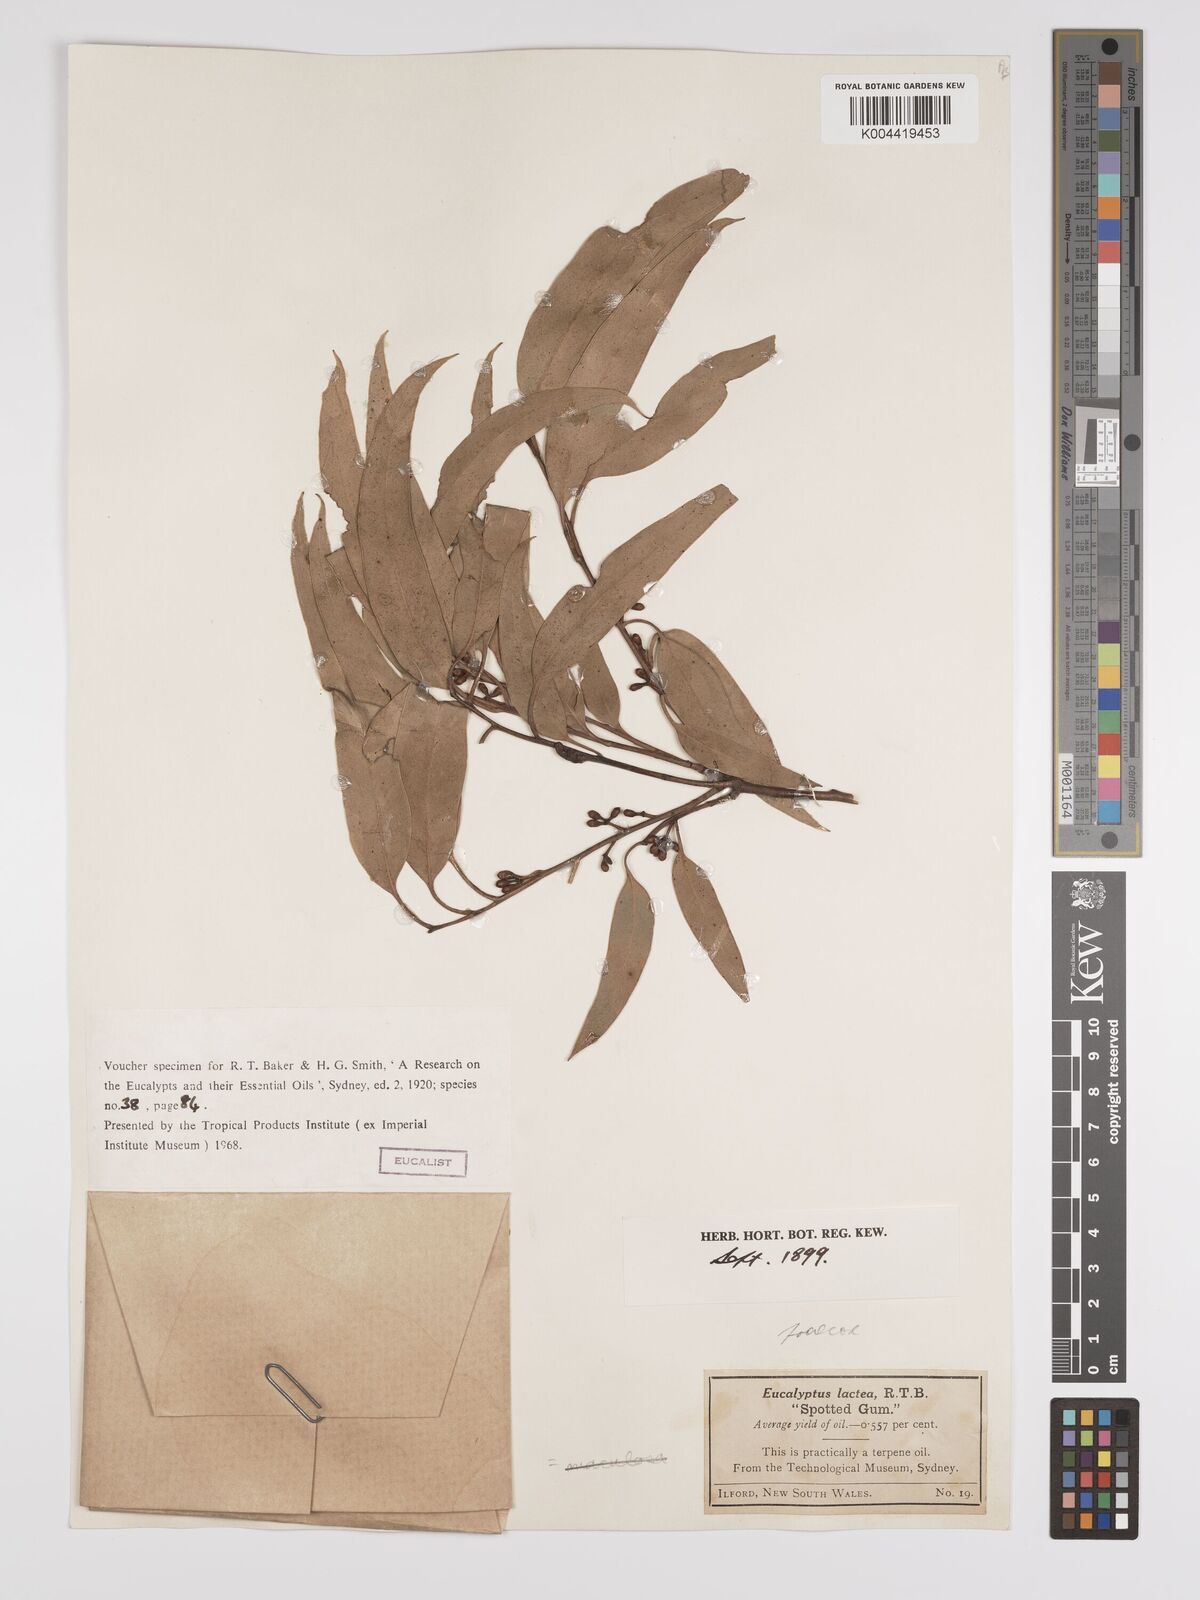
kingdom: Plantae
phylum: Tracheophyta
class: Magnoliopsida
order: Myrtales
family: Myrtaceae
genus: Eucalyptus
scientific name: Eucalyptus mannifera
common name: Manna gum
